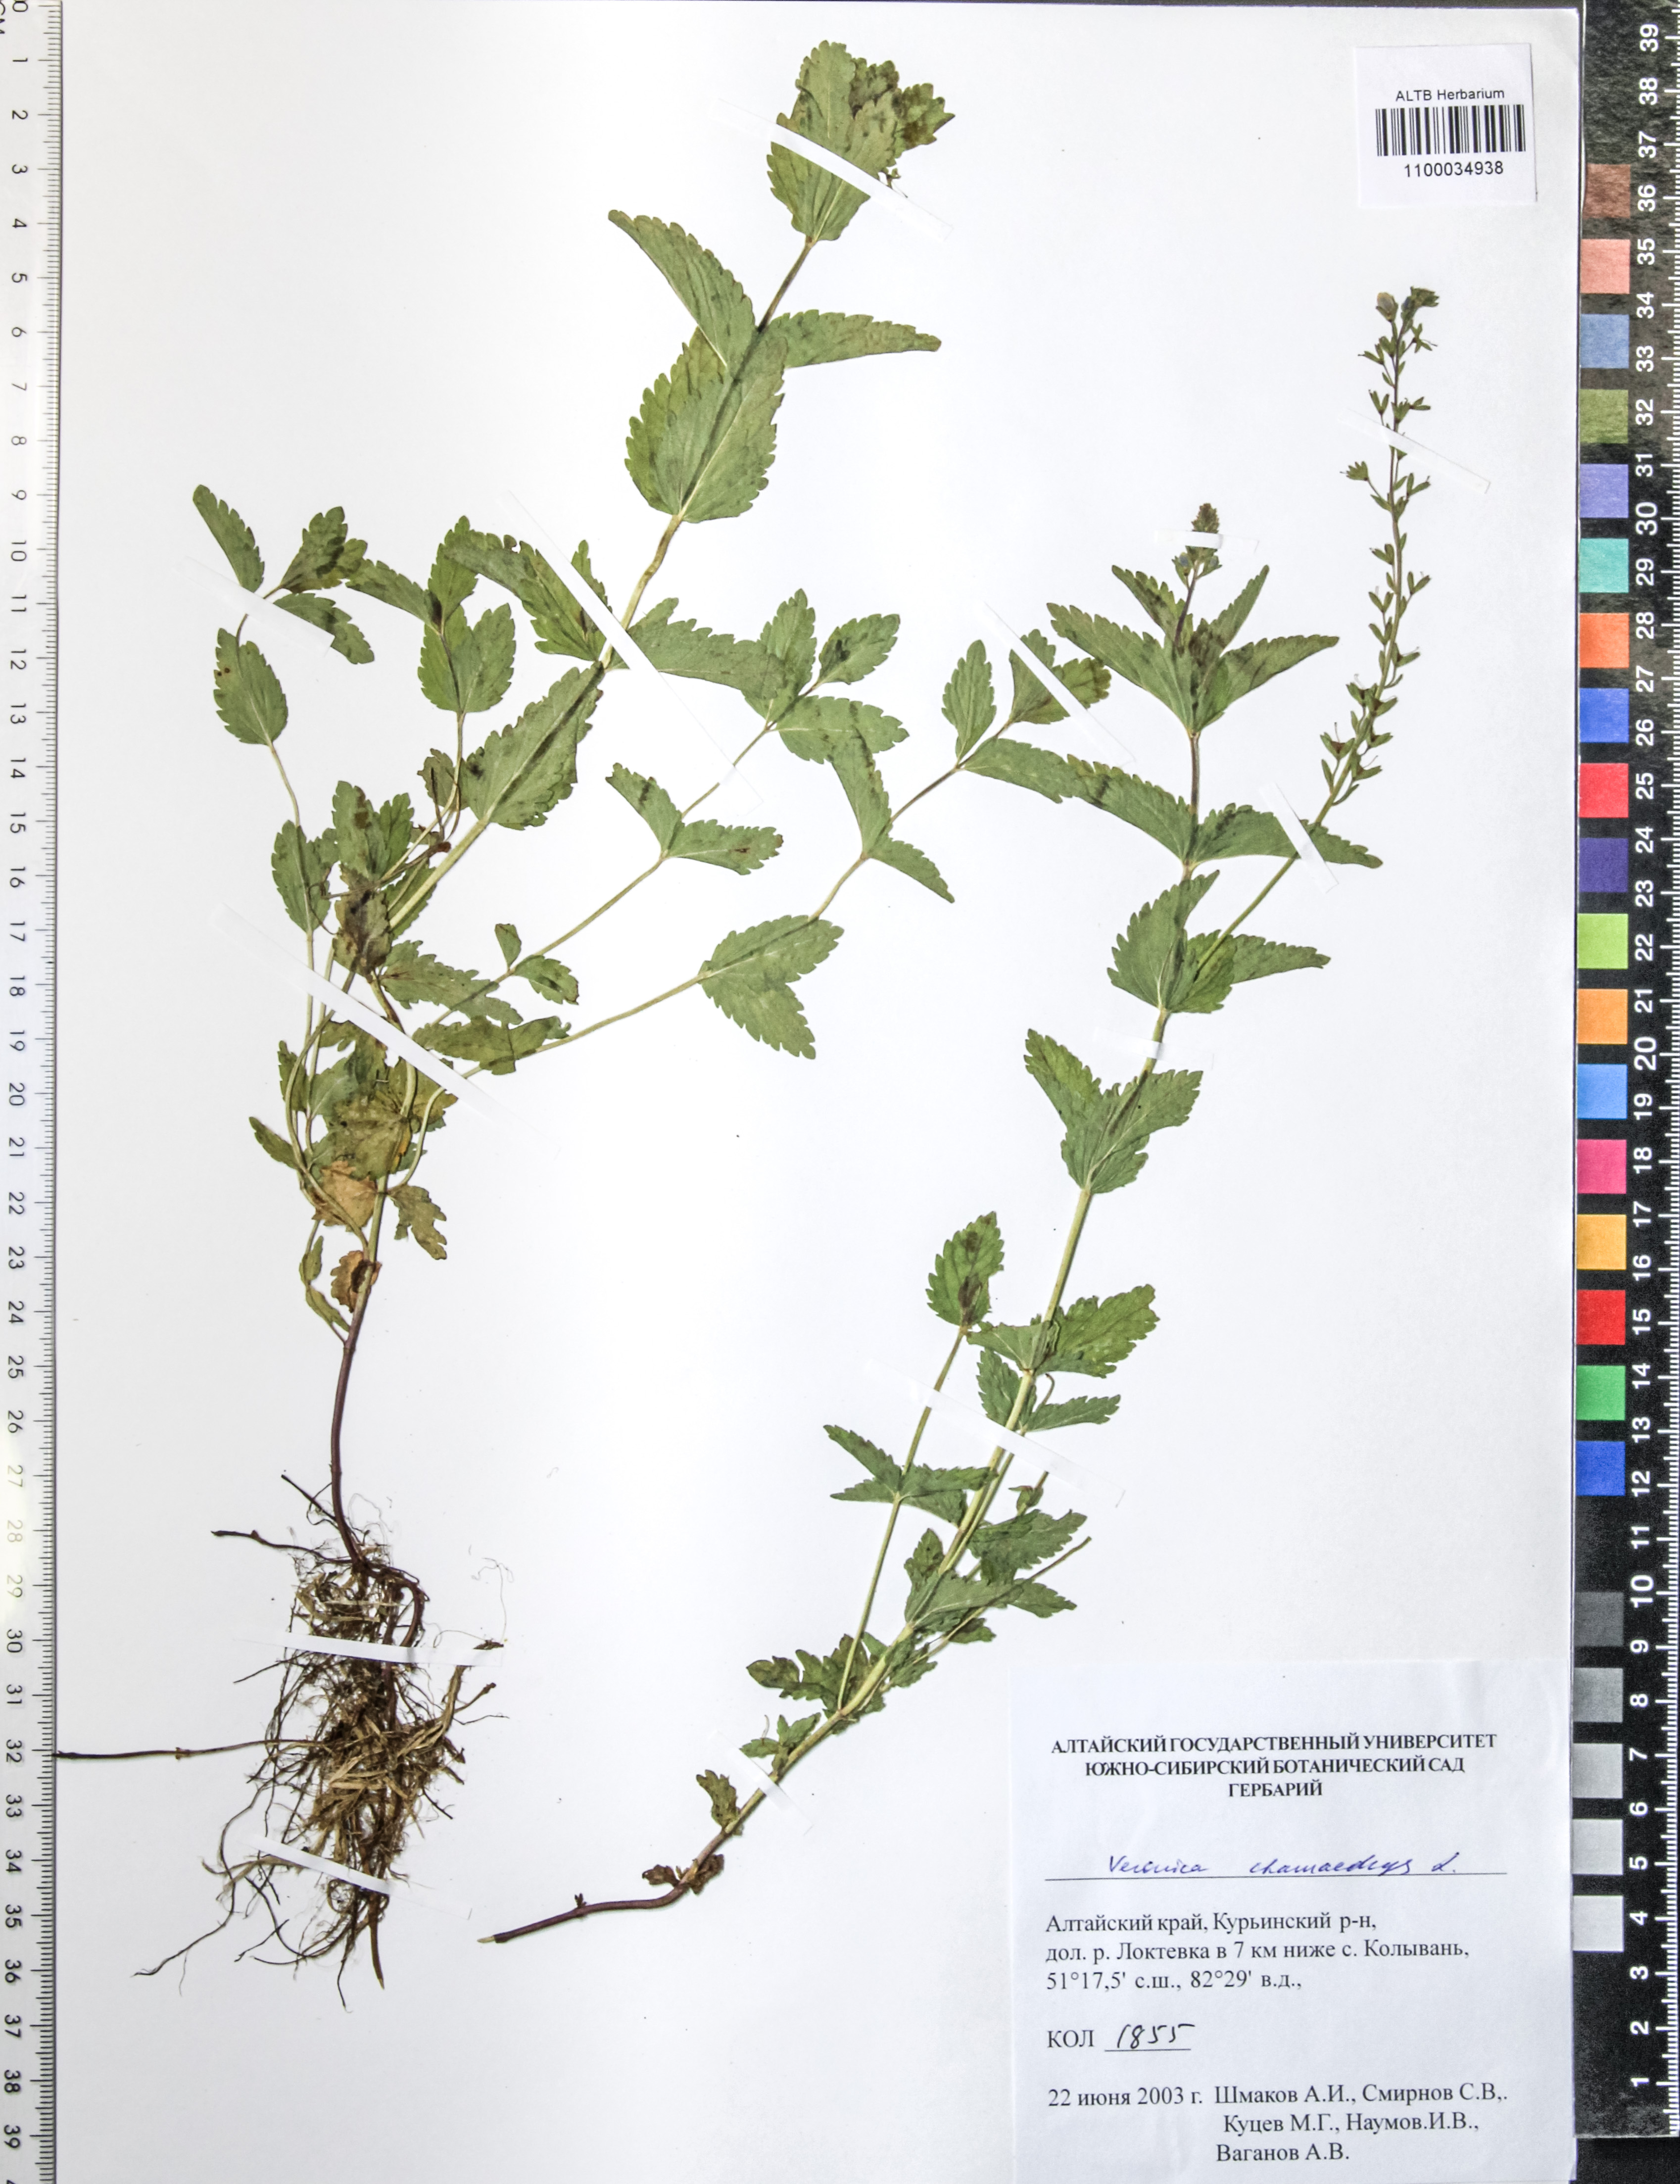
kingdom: Plantae
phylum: Tracheophyta
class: Magnoliopsida
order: Lamiales
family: Plantaginaceae
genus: Veronica
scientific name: Veronica chamaedrys
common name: Germander speedwell
